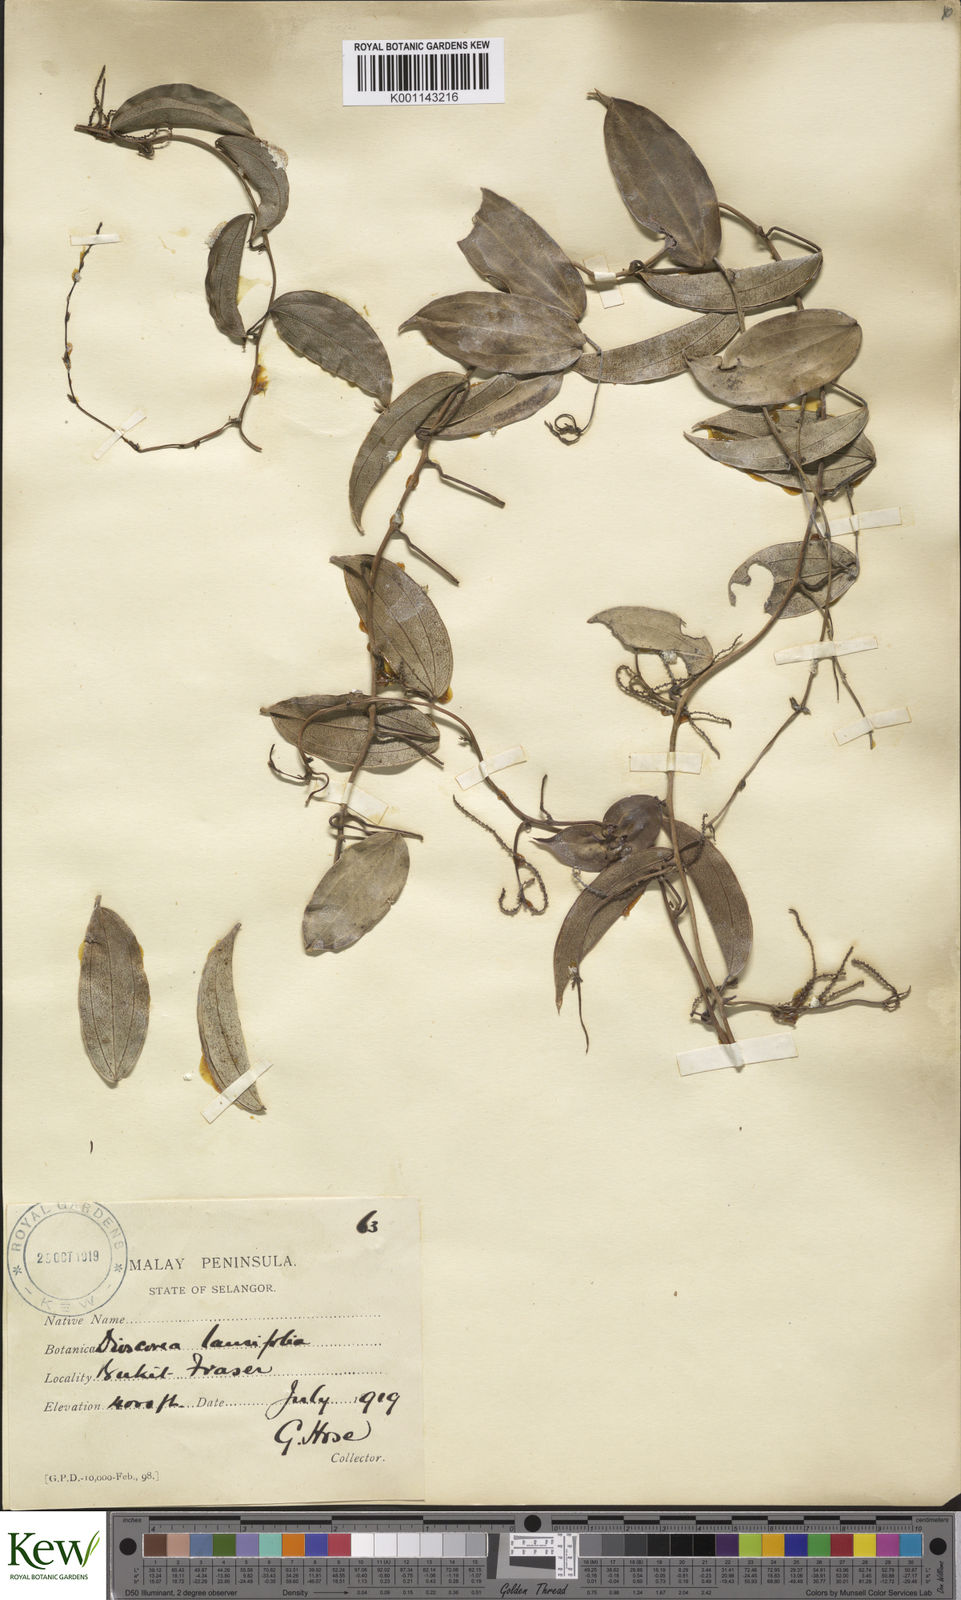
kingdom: Plantae
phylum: Tracheophyta
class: Liliopsida
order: Dioscoreales
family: Dioscoreaceae
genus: Dioscorea
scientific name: Dioscorea laurifolia
